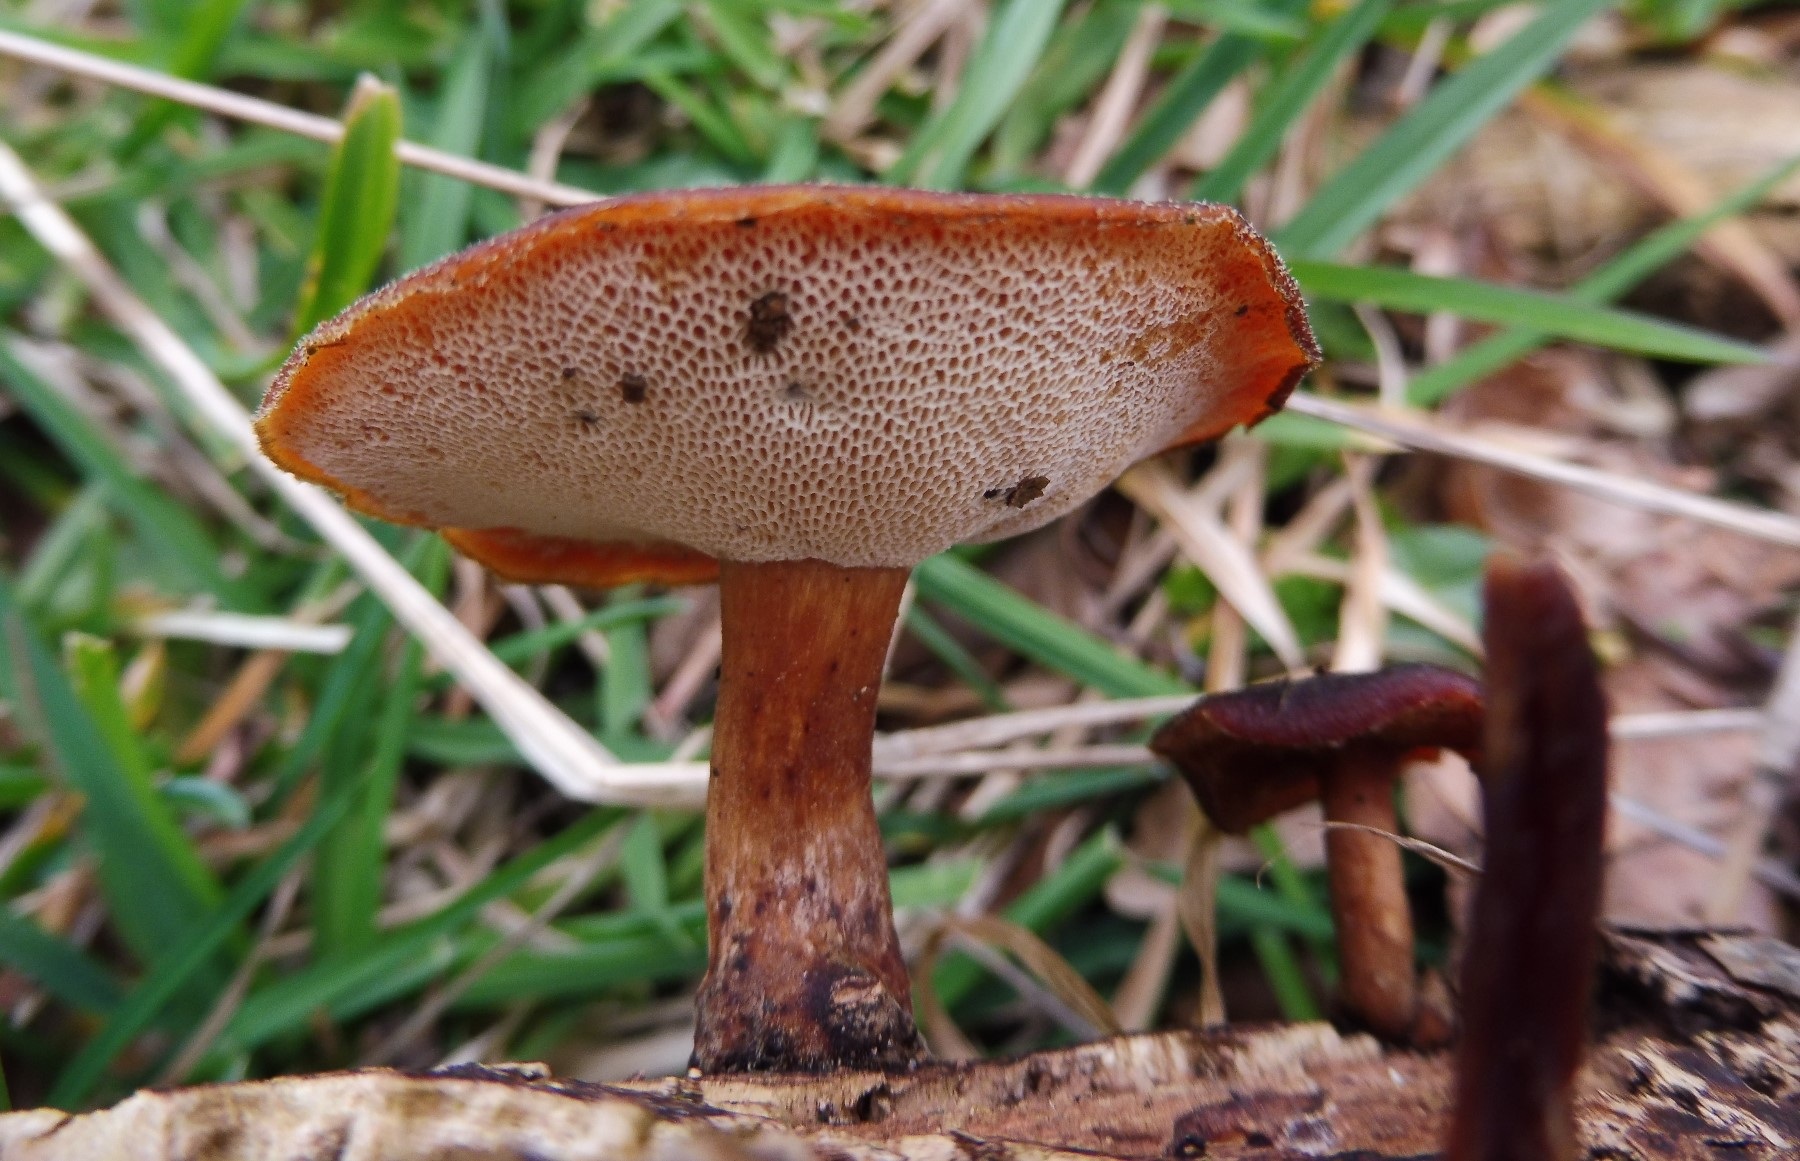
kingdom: Fungi
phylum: Basidiomycota
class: Agaricomycetes
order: Polyporales
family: Polyporaceae
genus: Lentinus
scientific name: Lentinus brumalis
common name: vinter-stilkporesvamp
